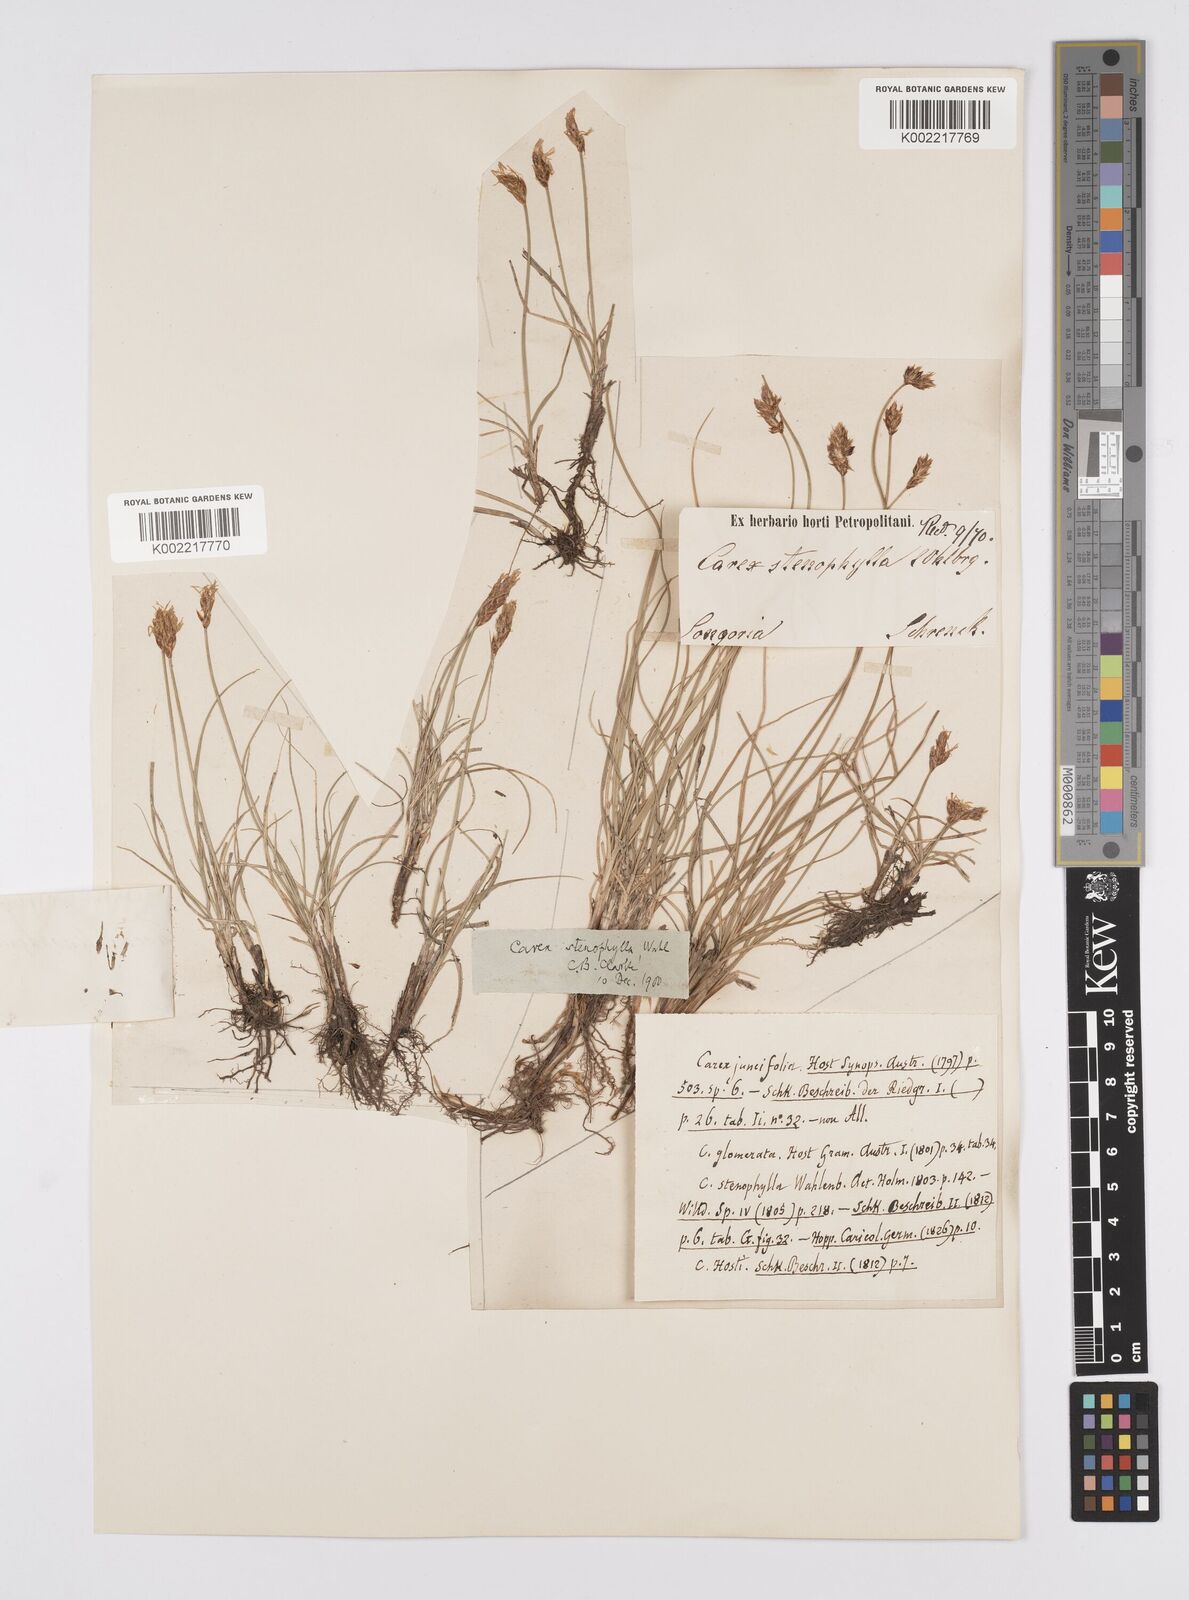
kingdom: Plantae
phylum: Tracheophyta
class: Liliopsida
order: Poales
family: Cyperaceae
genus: Carex
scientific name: Carex stenophylla
